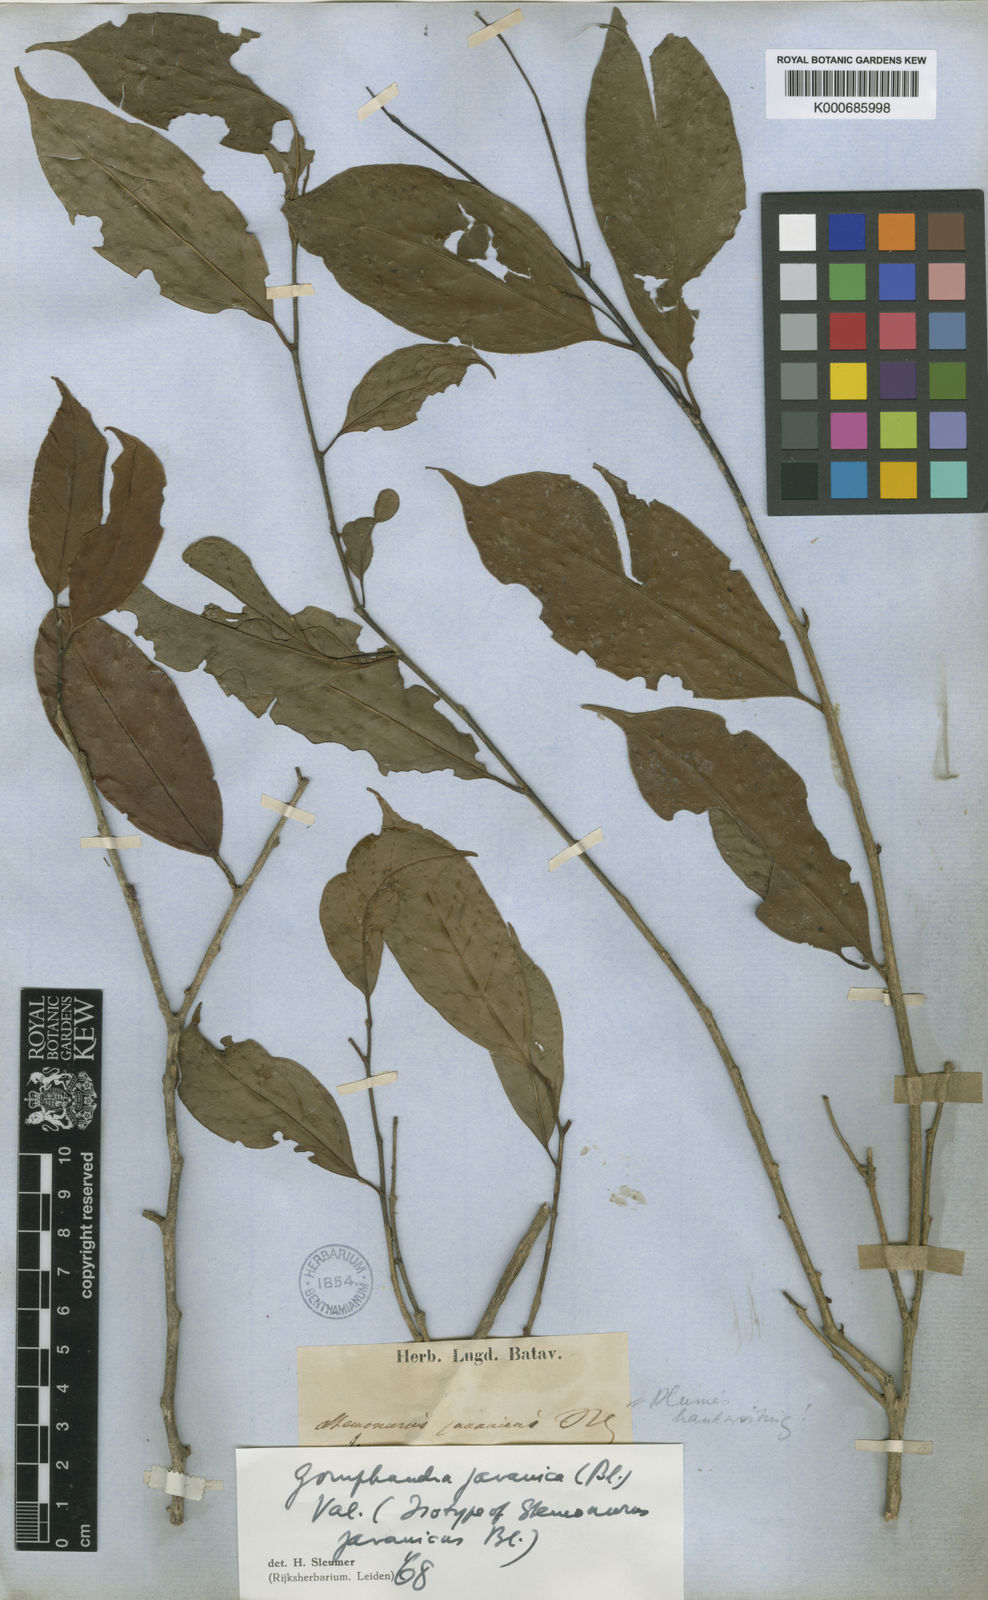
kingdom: Plantae
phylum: Tracheophyta
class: Magnoliopsida
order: Cardiopteridales
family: Stemonuraceae
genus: Gomphandra
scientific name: Gomphandra javanica
